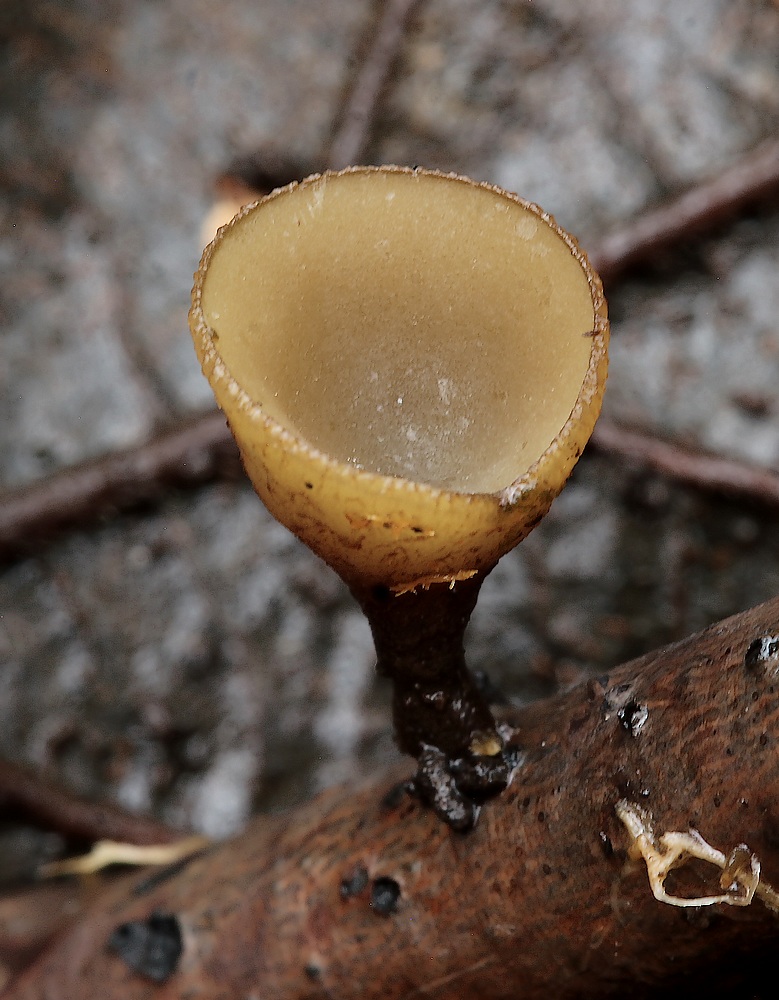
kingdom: Fungi
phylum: Ascomycota
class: Leotiomycetes
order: Helotiales
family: Rutstroemiaceae
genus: Rutstroemia
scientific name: Rutstroemia alni
